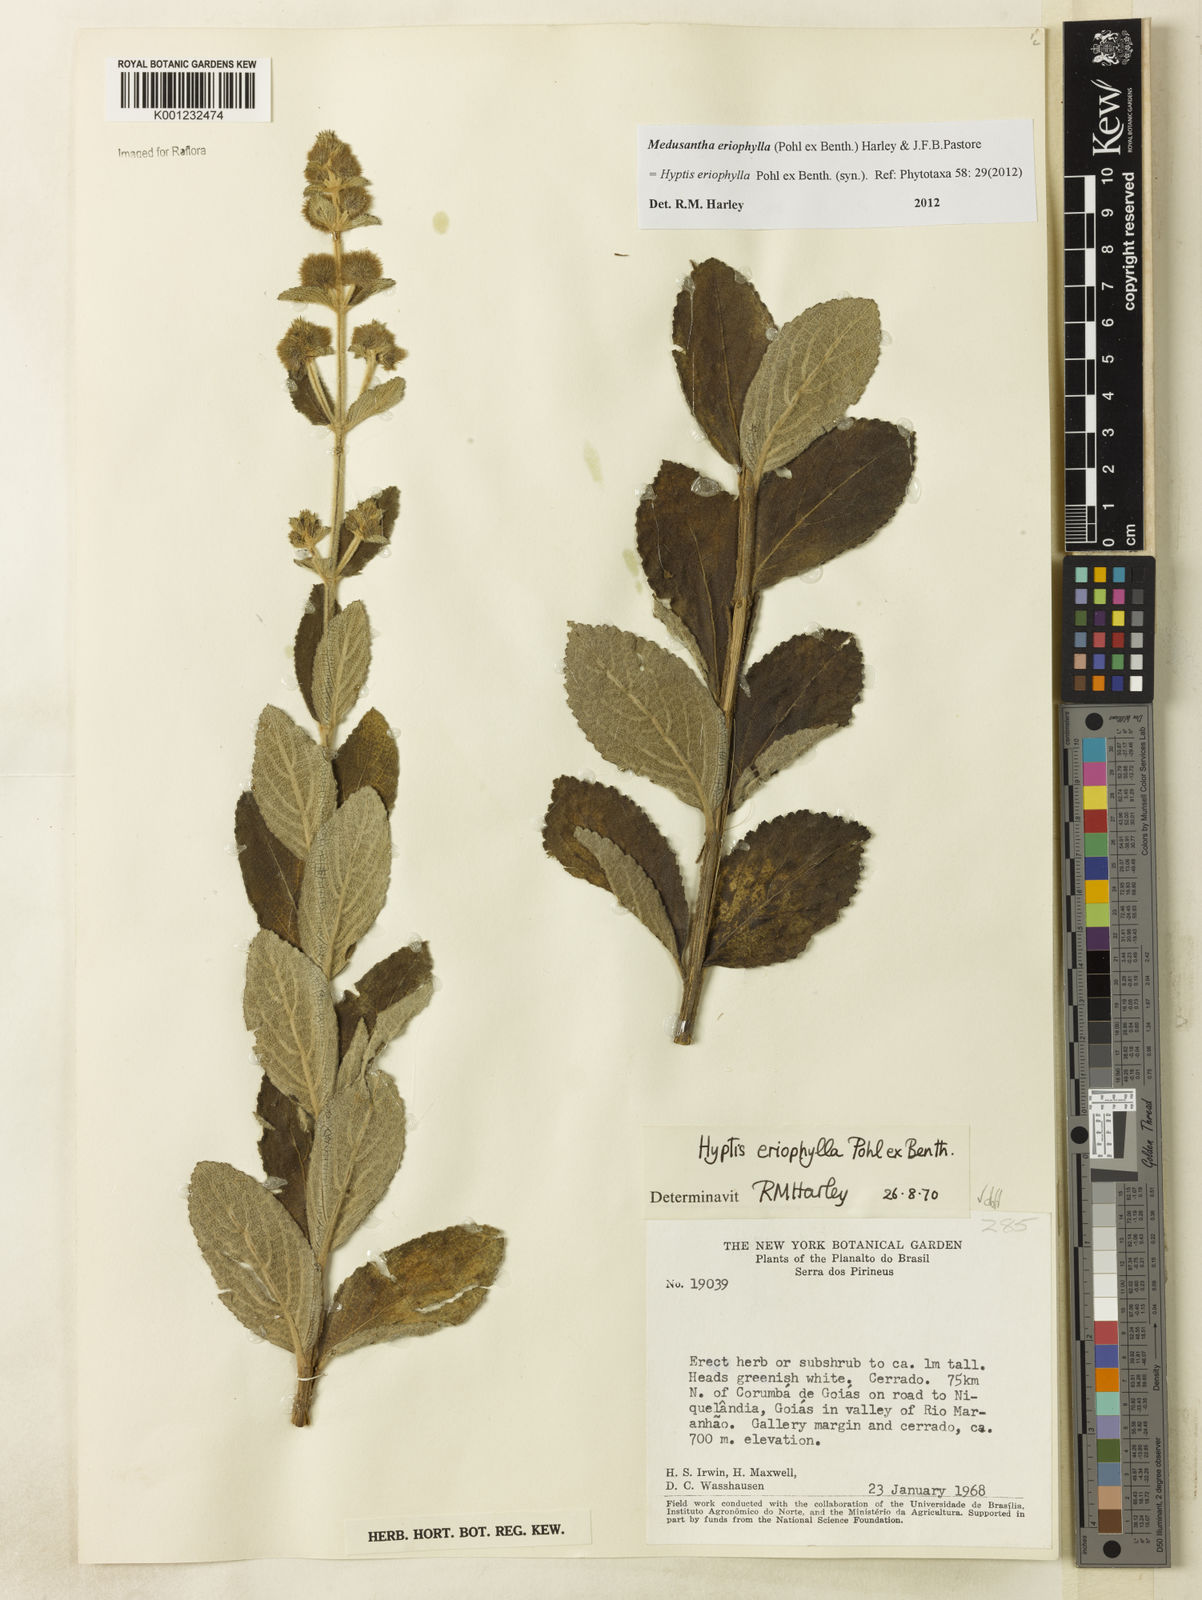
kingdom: Plantae
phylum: Tracheophyta
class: Magnoliopsida
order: Lamiales
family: Lamiaceae
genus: Medusantha
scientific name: Medusantha eriophylla
